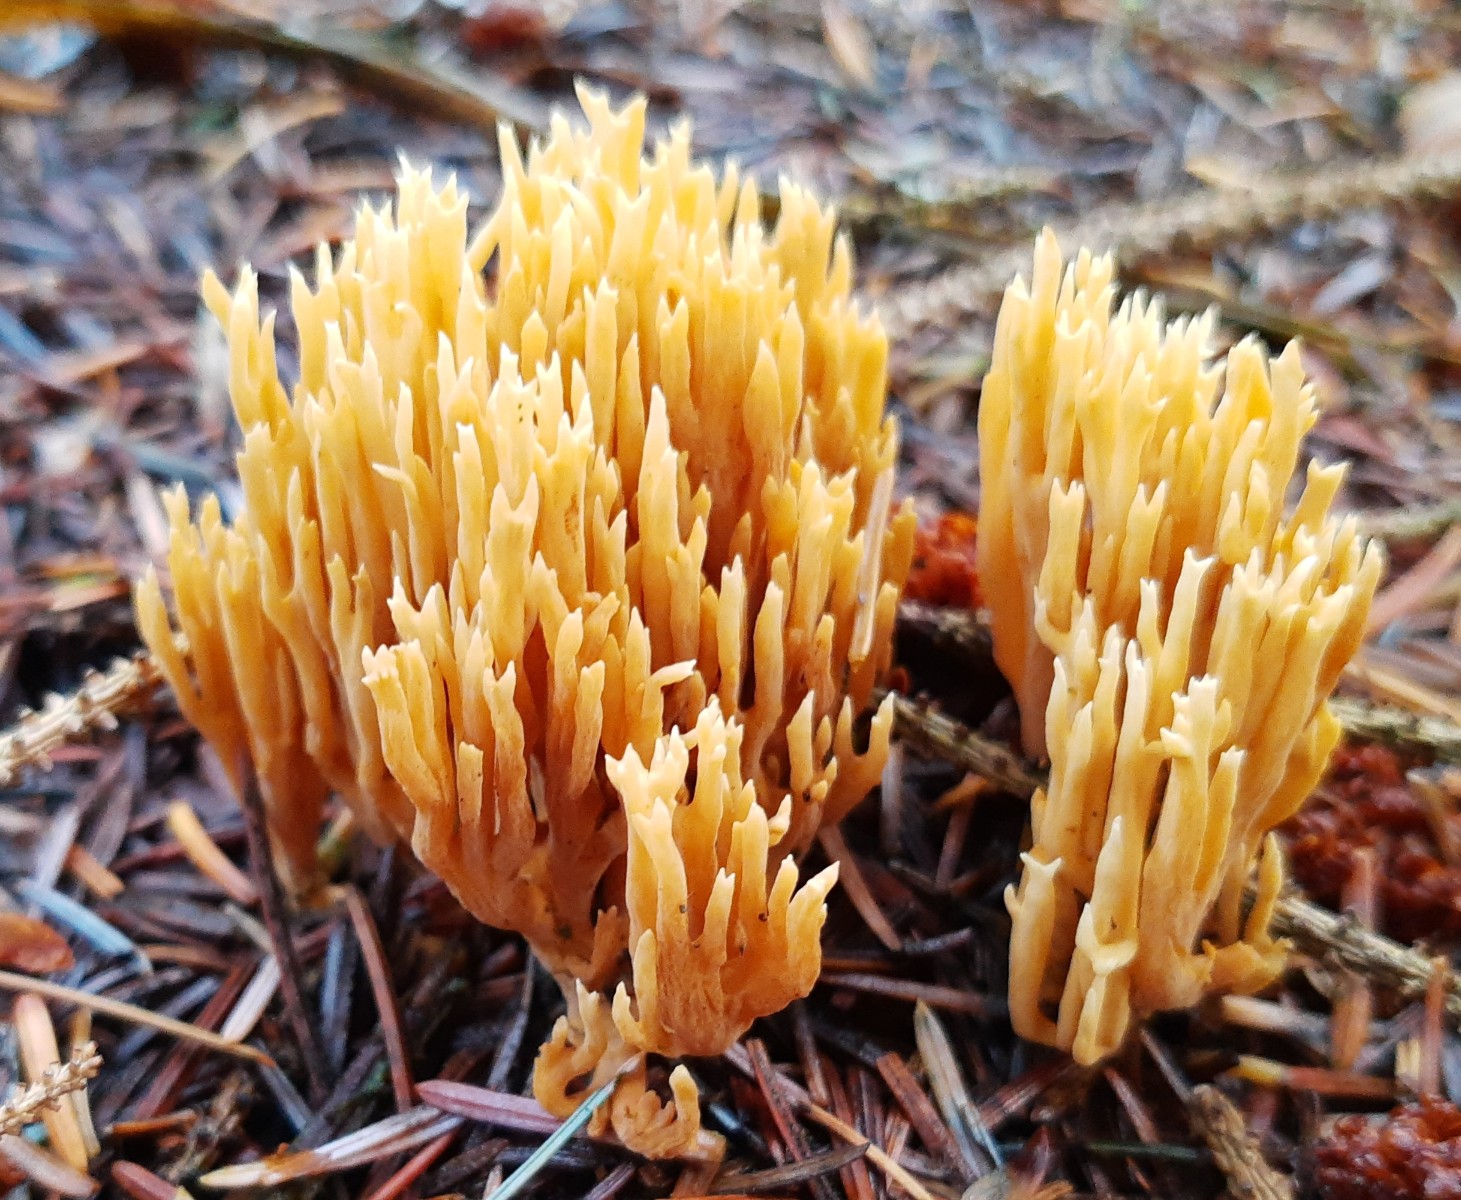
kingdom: Fungi
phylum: Basidiomycota
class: Agaricomycetes
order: Gomphales
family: Gomphaceae
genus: Phaeoclavulina
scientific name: Phaeoclavulina eumorpha
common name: gran-koralsvamp
